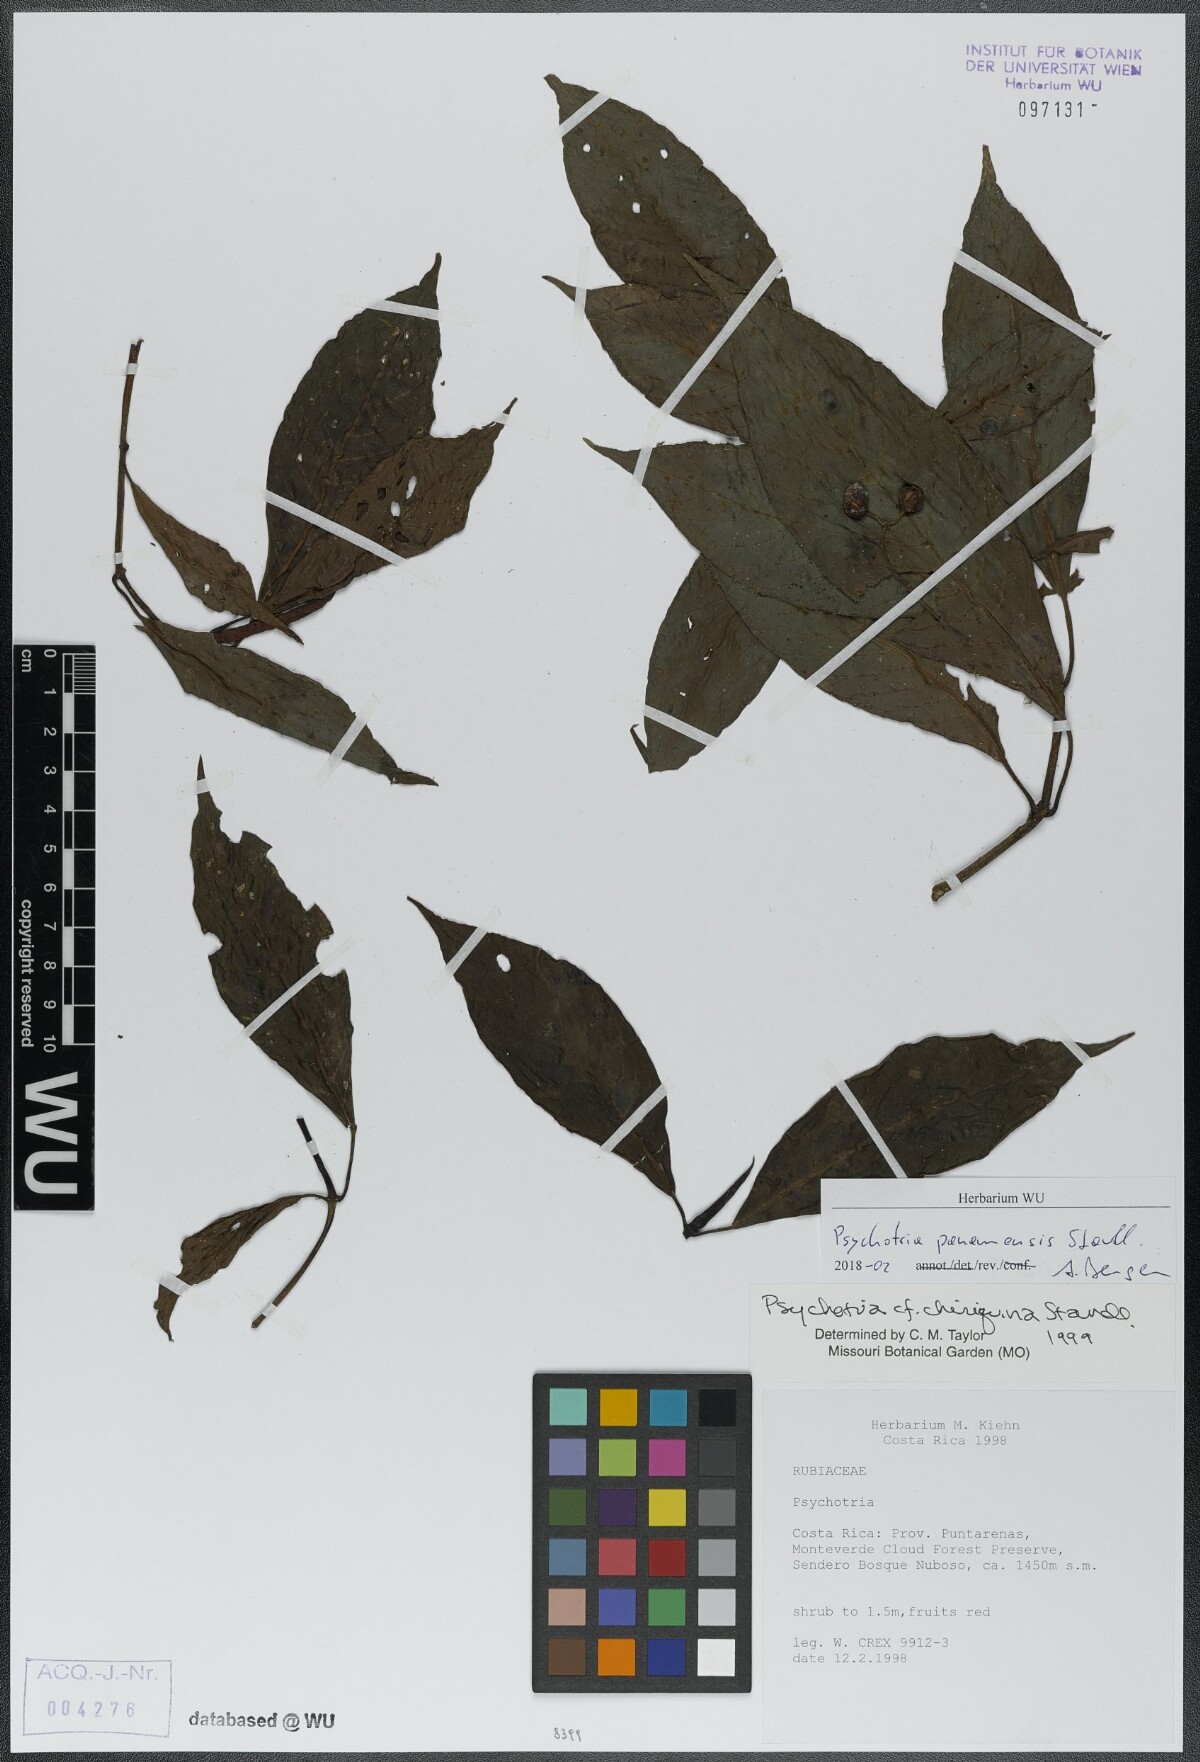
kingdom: Plantae
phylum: Tracheophyta
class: Magnoliopsida
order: Gentianales
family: Rubiaceae
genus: Psychotria
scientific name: Psychotria panamensis
